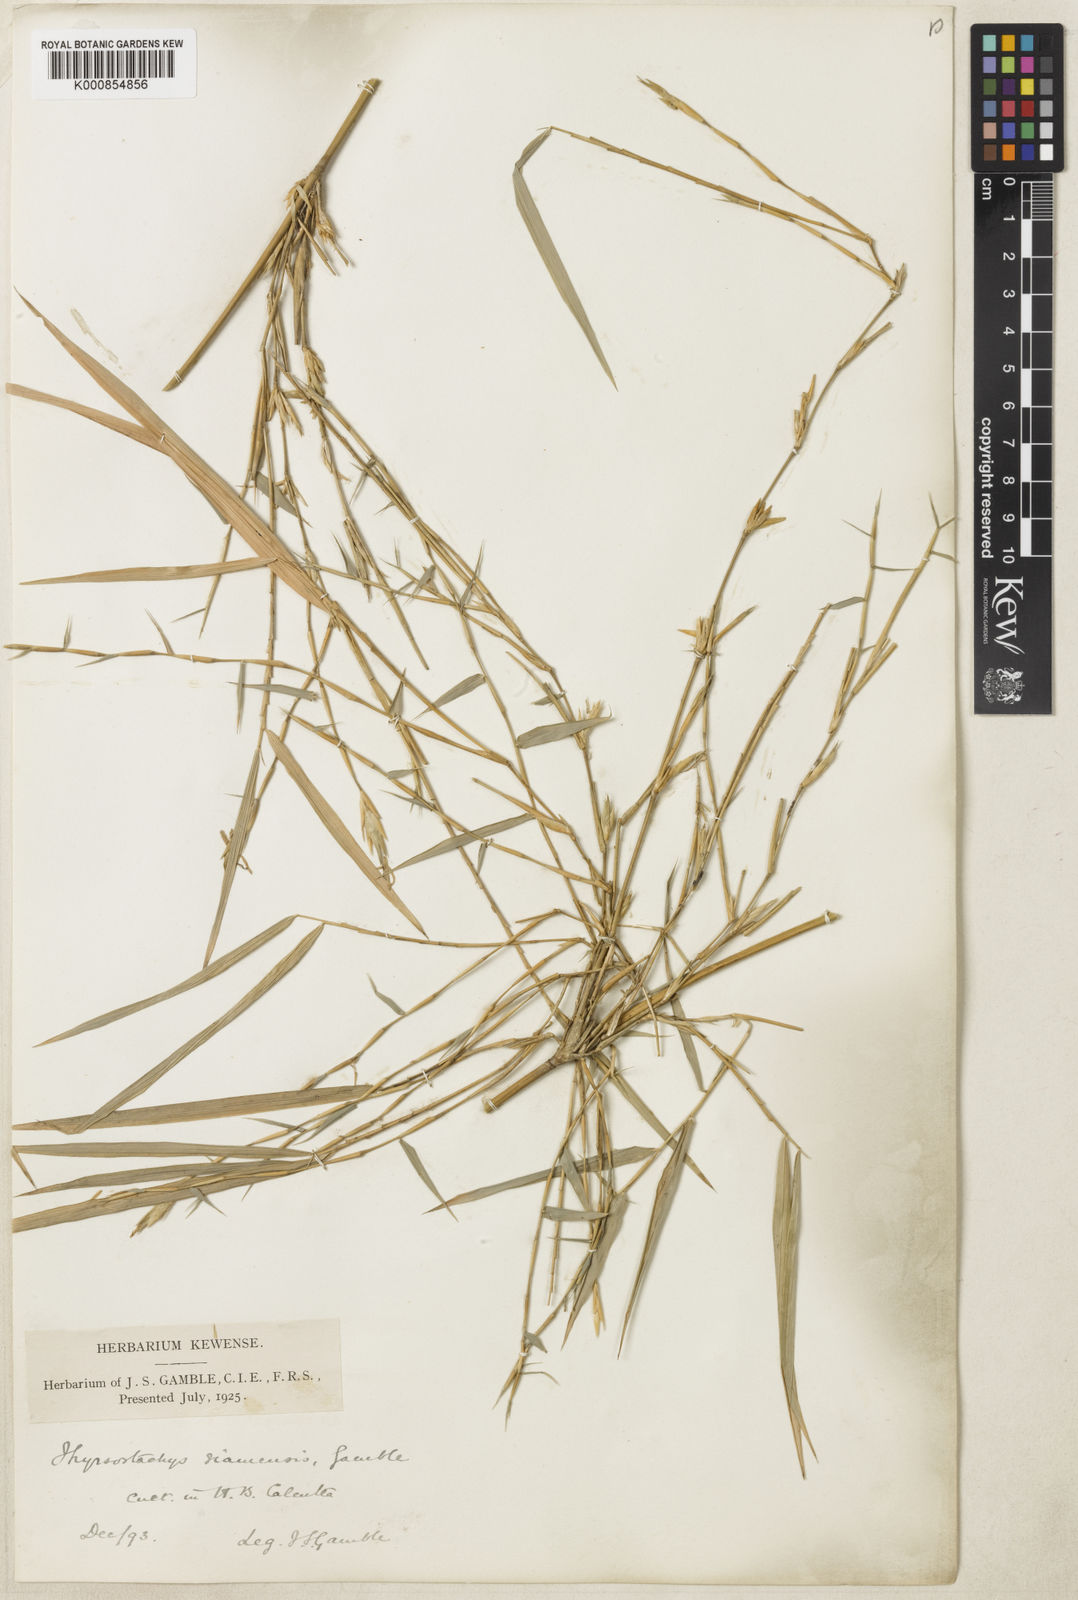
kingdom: Plantae
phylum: Tracheophyta
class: Liliopsida
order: Poales
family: Poaceae
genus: Thyrsostachys
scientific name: Thyrsostachys siamensis
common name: Thailand bamboo
